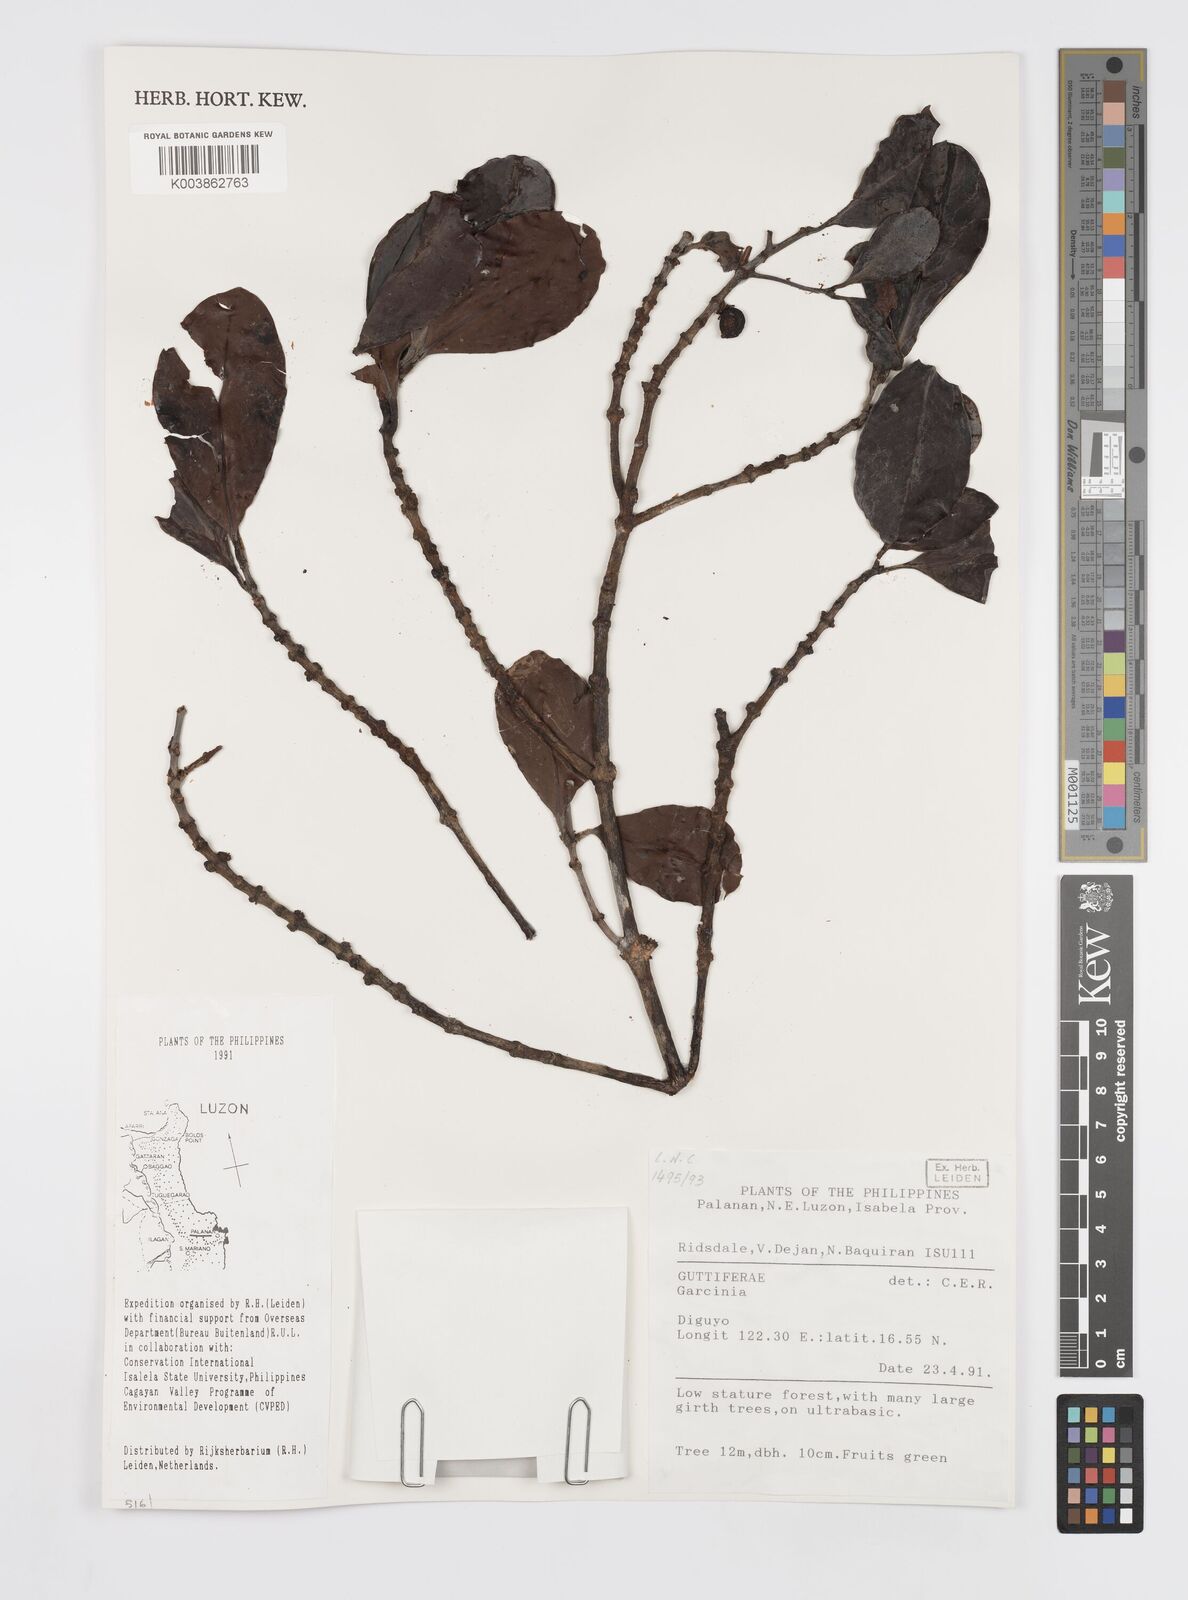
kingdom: Plantae
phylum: Tracheophyta
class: Magnoliopsida
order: Malpighiales
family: Clusiaceae
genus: Garcinia
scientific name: Garcinia
